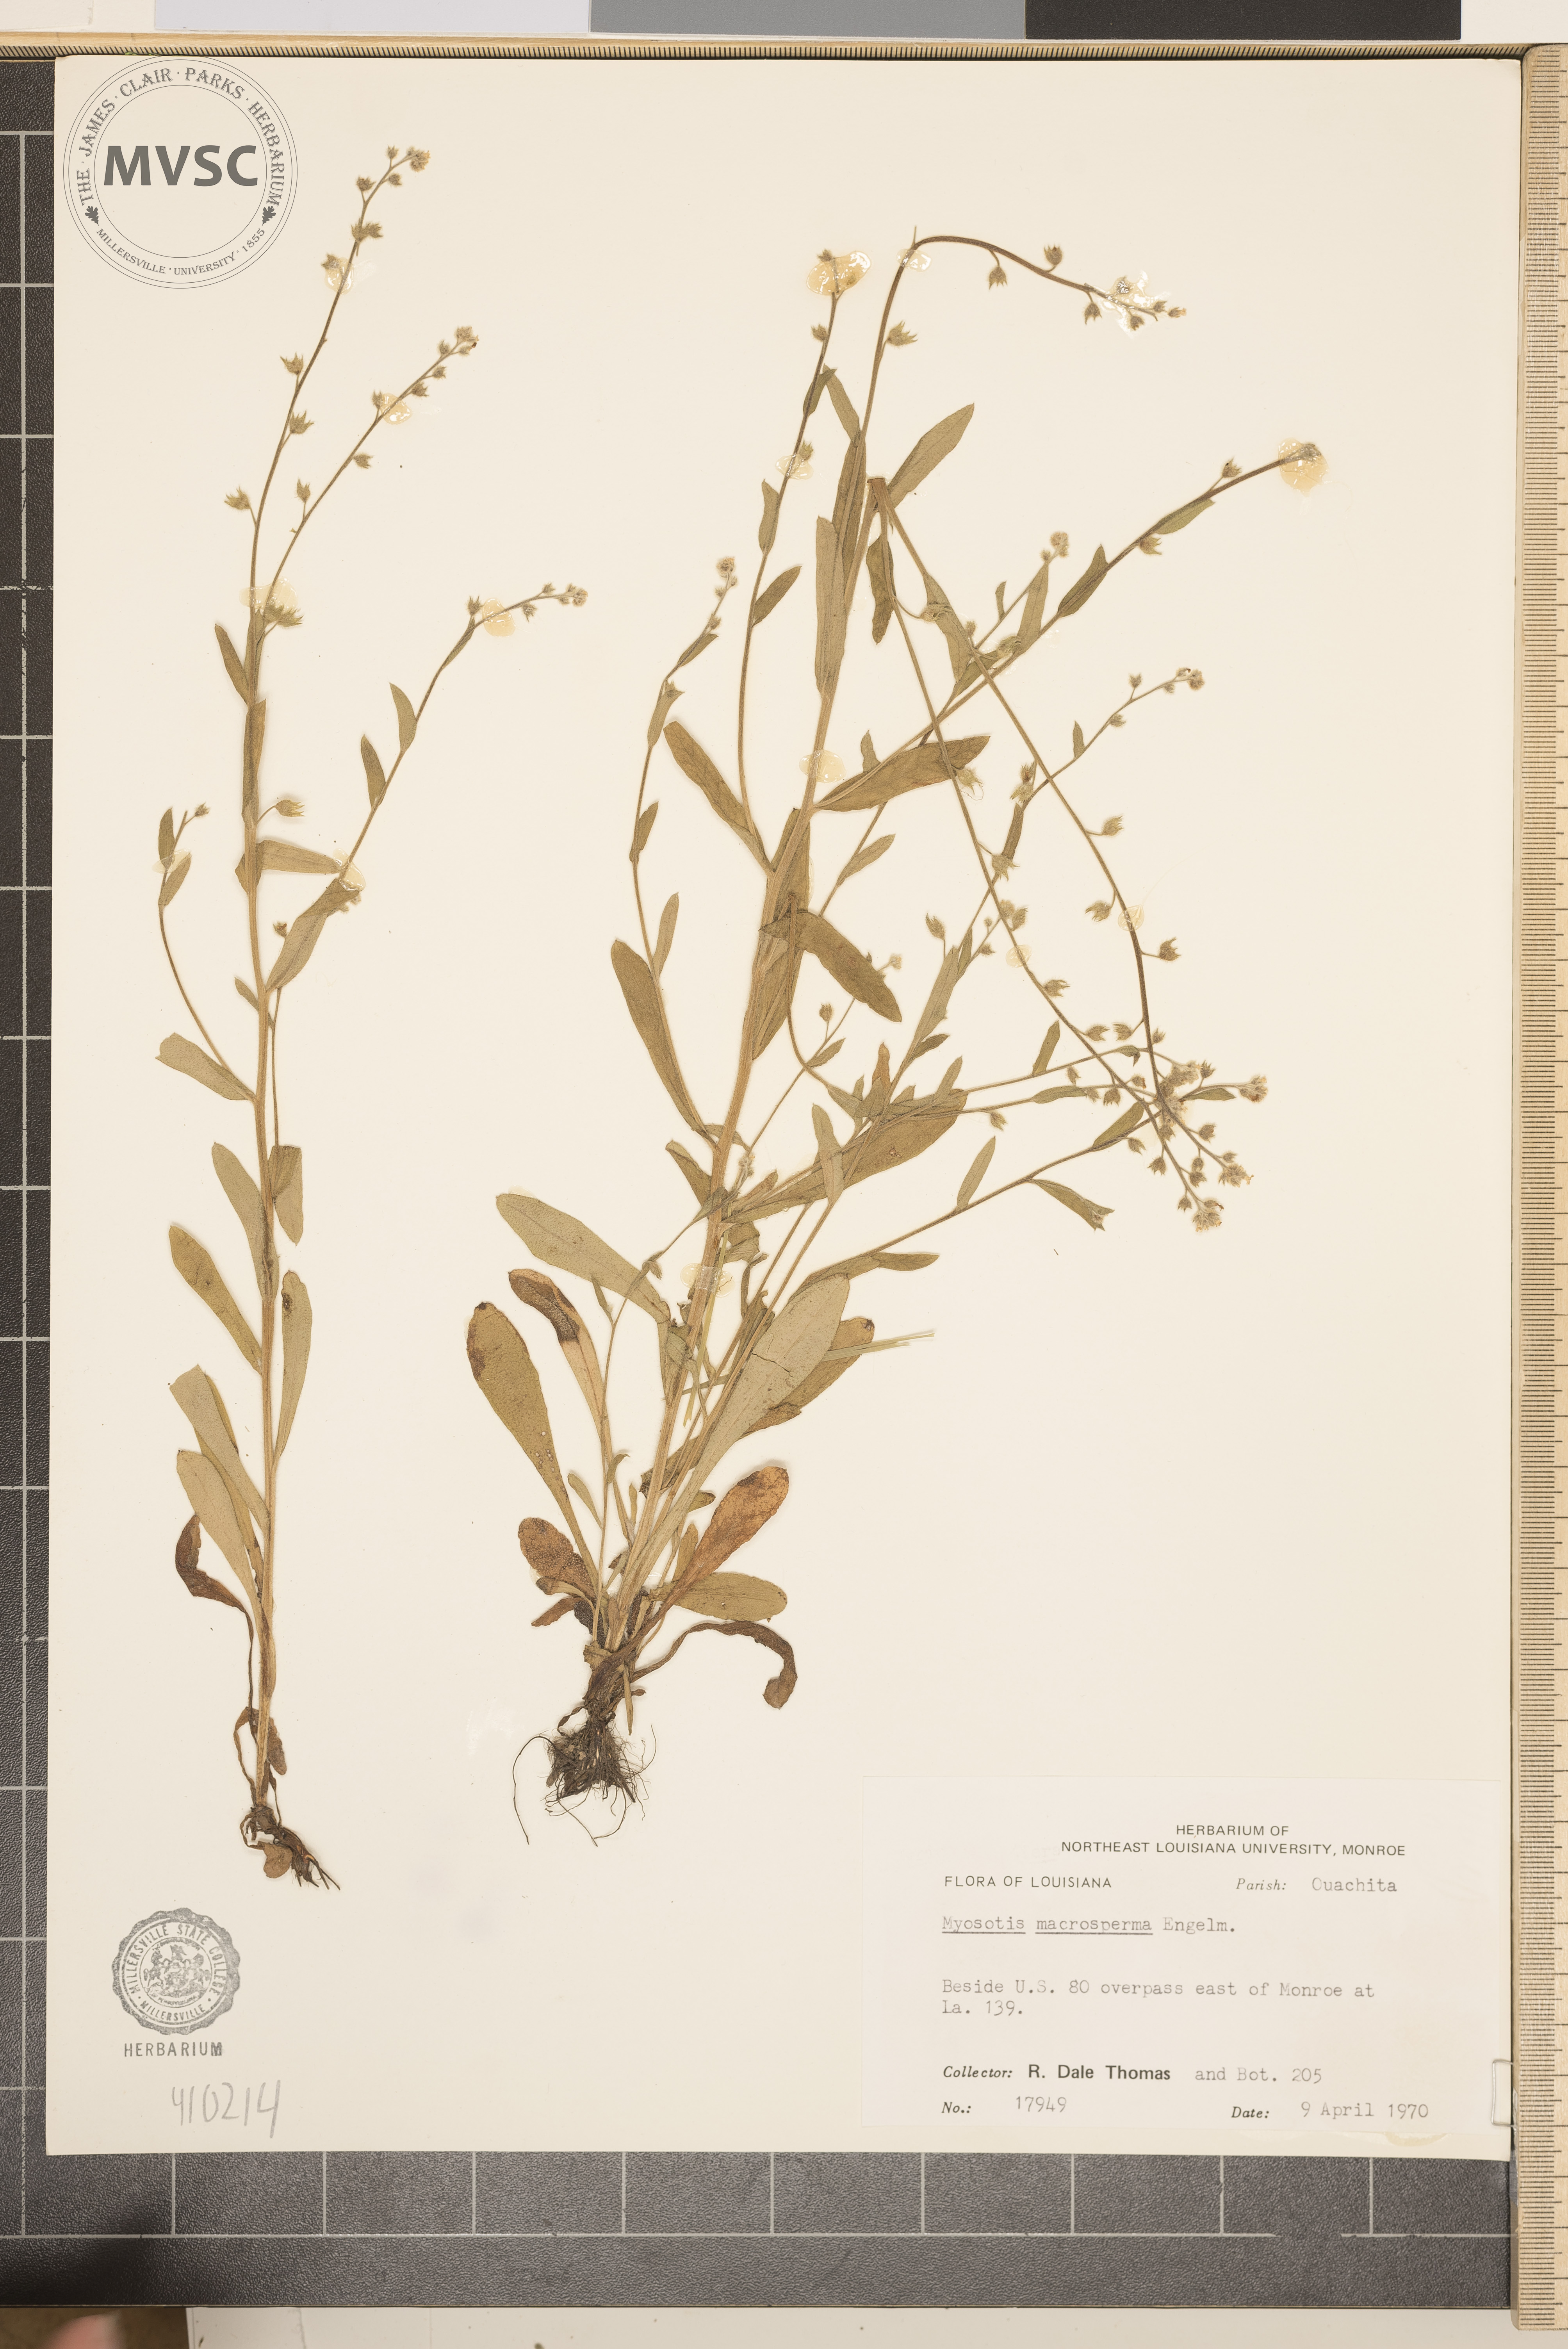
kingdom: Plantae
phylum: Tracheophyta
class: Magnoliopsida
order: Boraginales
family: Boraginaceae
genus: Myosotis
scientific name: Myosotis macrosperma
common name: Large-seed forget-me-not
